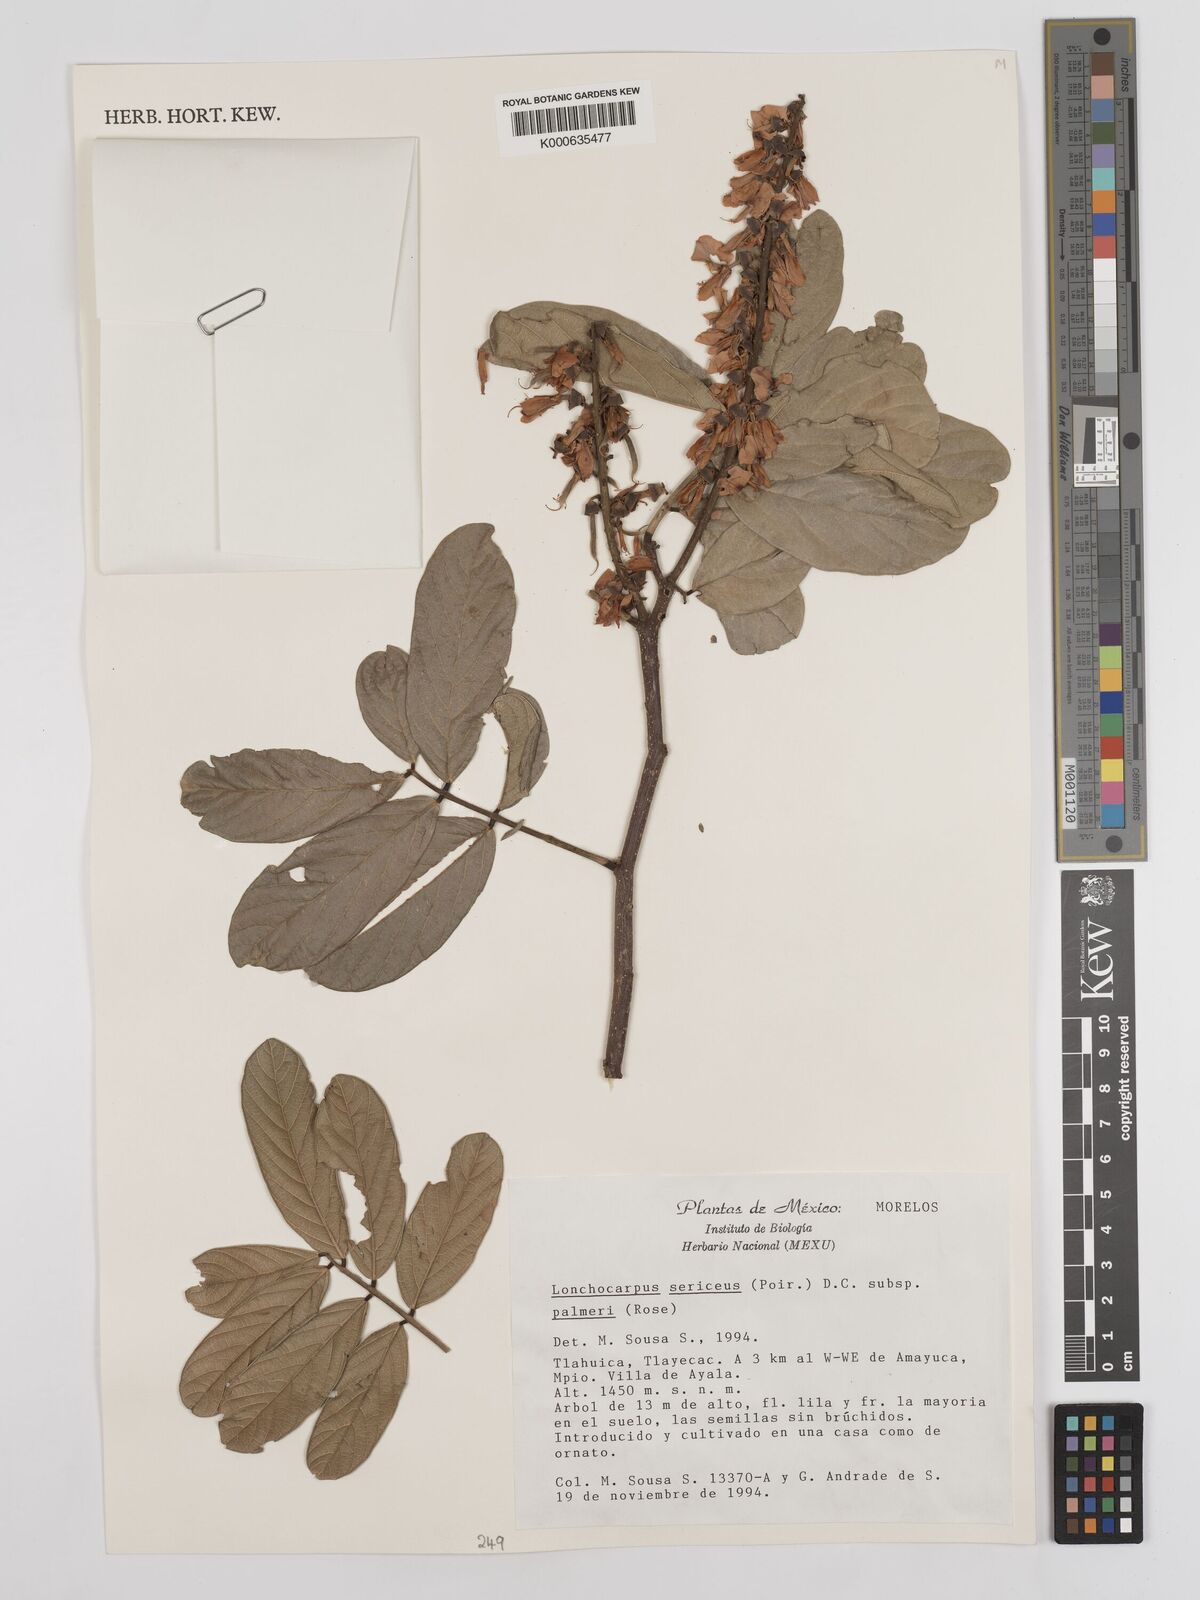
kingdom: Plantae
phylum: Tracheophyta
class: Magnoliopsida
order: Fabales
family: Fabaceae
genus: Lonchocarpus
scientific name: Lonchocarpus palmeri
